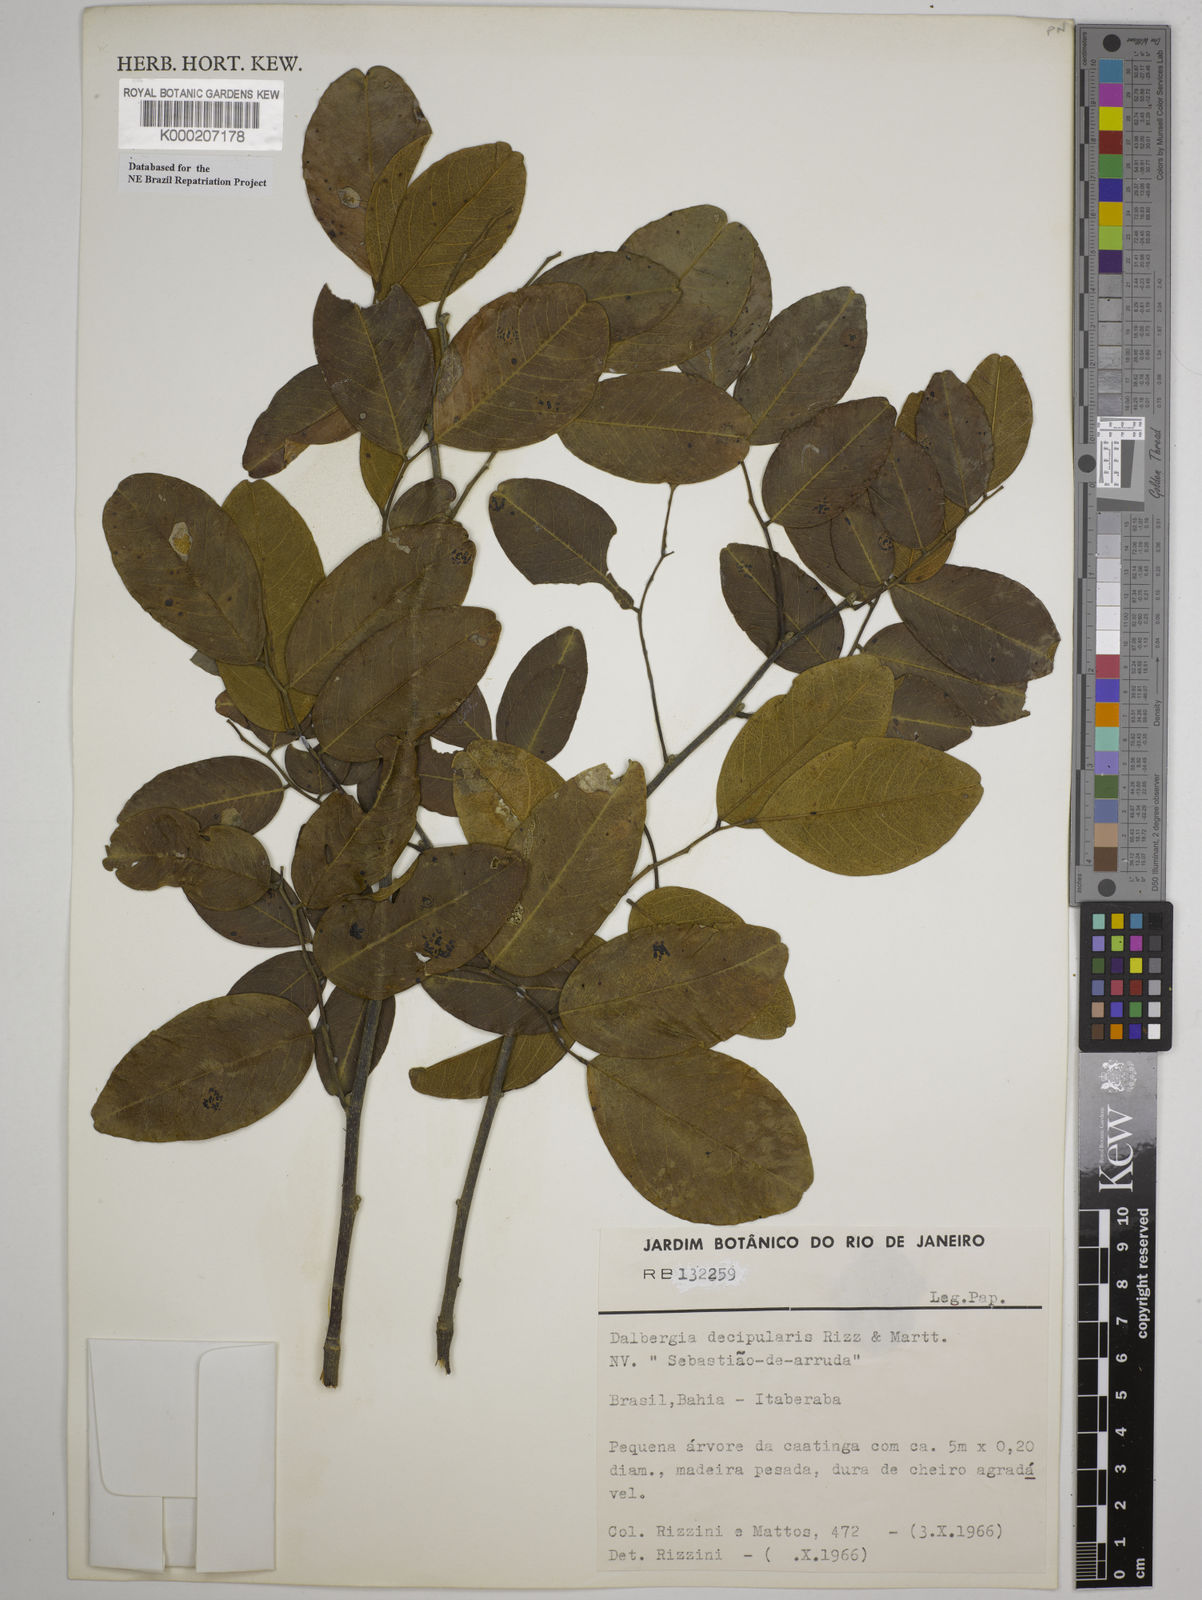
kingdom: Plantae
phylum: Tracheophyta
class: Magnoliopsida
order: Fabales
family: Fabaceae
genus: Dalbergia
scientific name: Dalbergia decipularis
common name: Brazilian tulipwood
